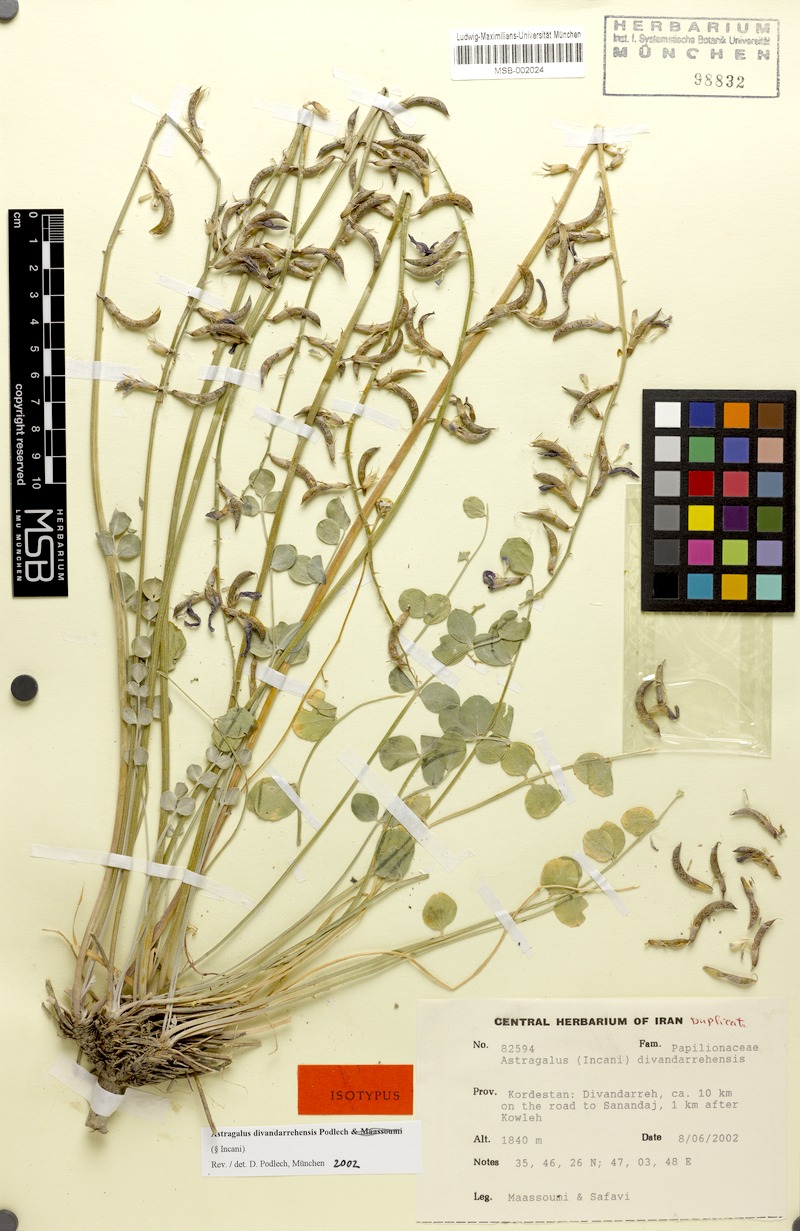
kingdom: Plantae
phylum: Tracheophyta
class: Magnoliopsida
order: Fabales
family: Fabaceae
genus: Astragalus
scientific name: Astragalus divandarrehensis
